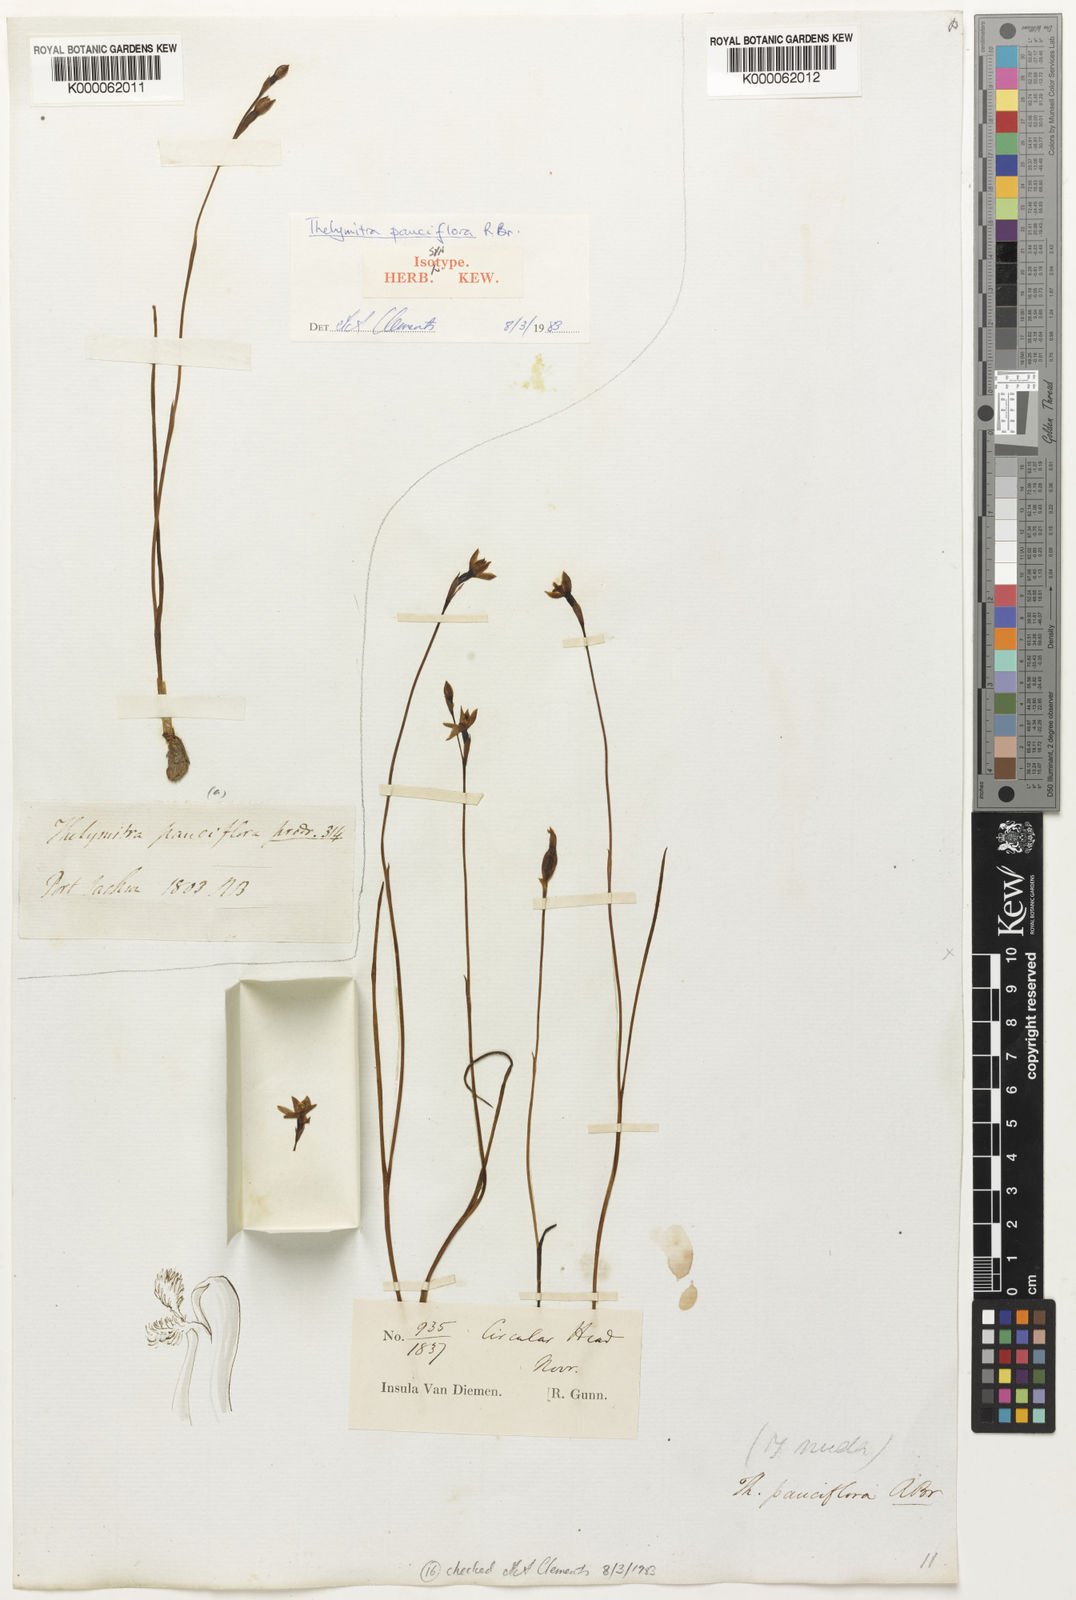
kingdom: Plantae
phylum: Tracheophyta
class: Liliopsida
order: Asparagales
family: Orchidaceae
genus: Thelymitra
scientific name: Thelymitra pauciflora
